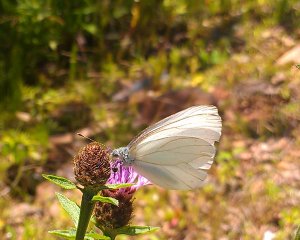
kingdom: Animalia
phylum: Arthropoda
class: Insecta
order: Lepidoptera
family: Pieridae
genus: Pieris
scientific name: Pieris oleracea
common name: Mustard White
